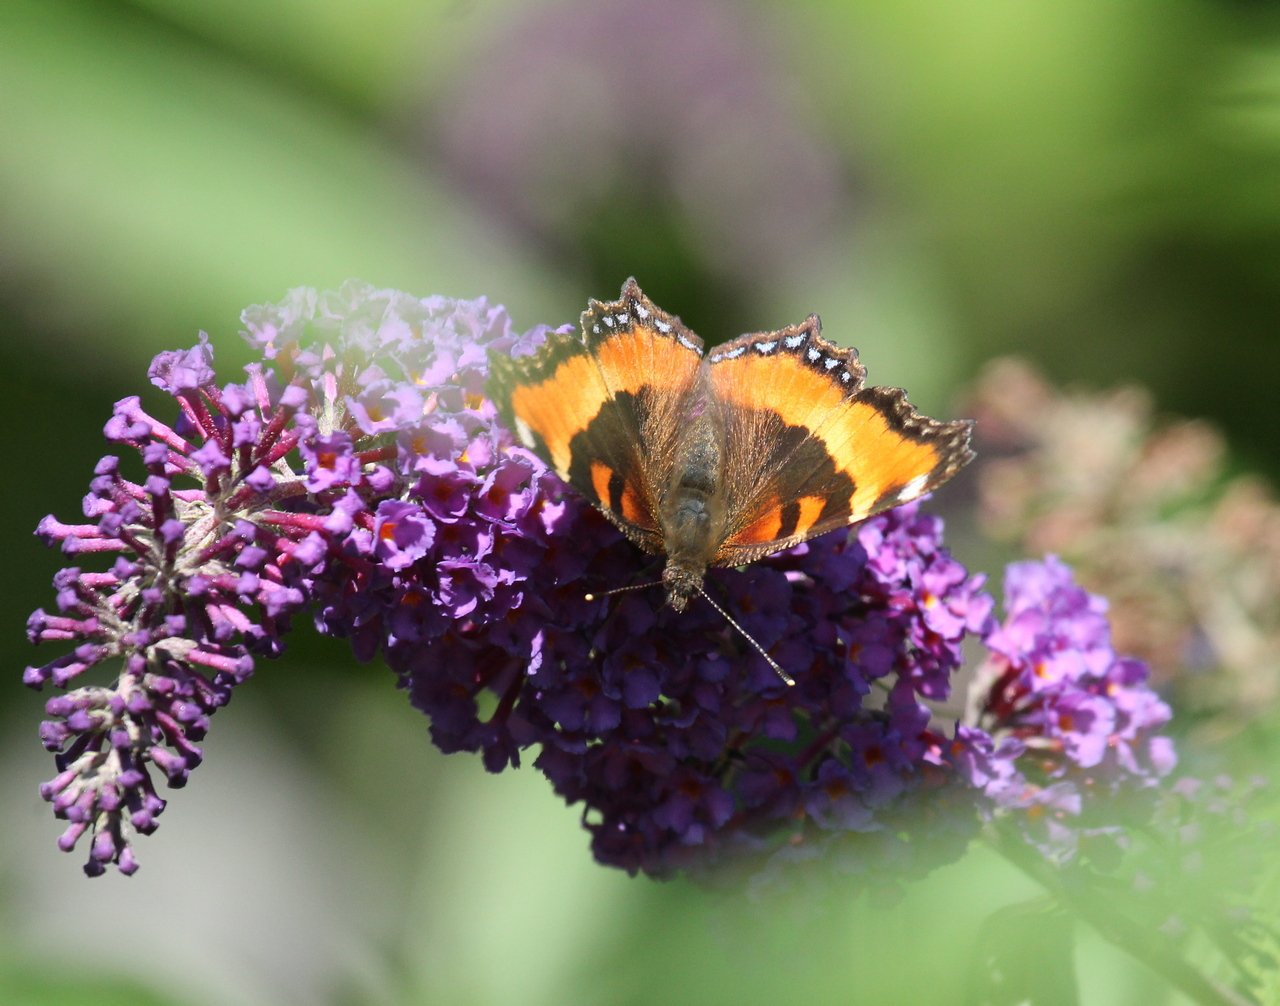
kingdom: Animalia
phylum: Arthropoda
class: Insecta
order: Lepidoptera
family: Nymphalidae
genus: Aglais
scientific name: Aglais milberti
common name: Milbert's Tortoiseshell
